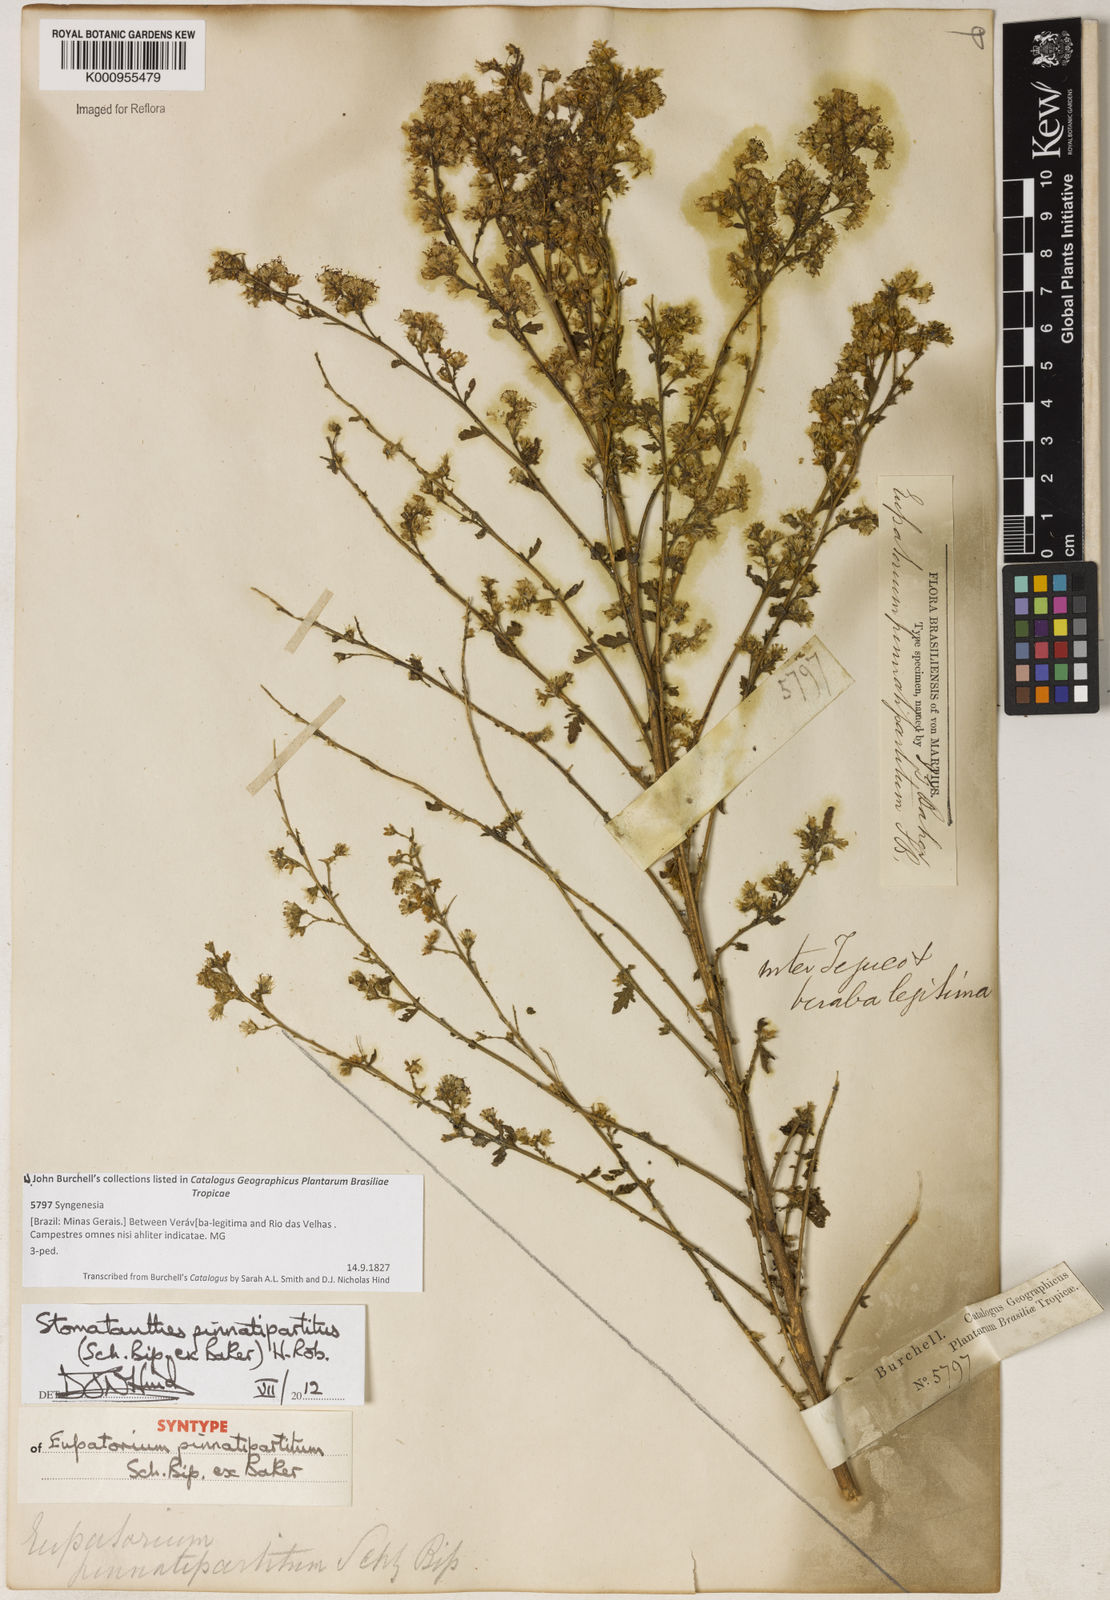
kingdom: Plantae
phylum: Tracheophyta
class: Magnoliopsida
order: Asterales
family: Asteraceae
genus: Stomatanthes
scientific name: Stomatanthes pinnatipartitus
